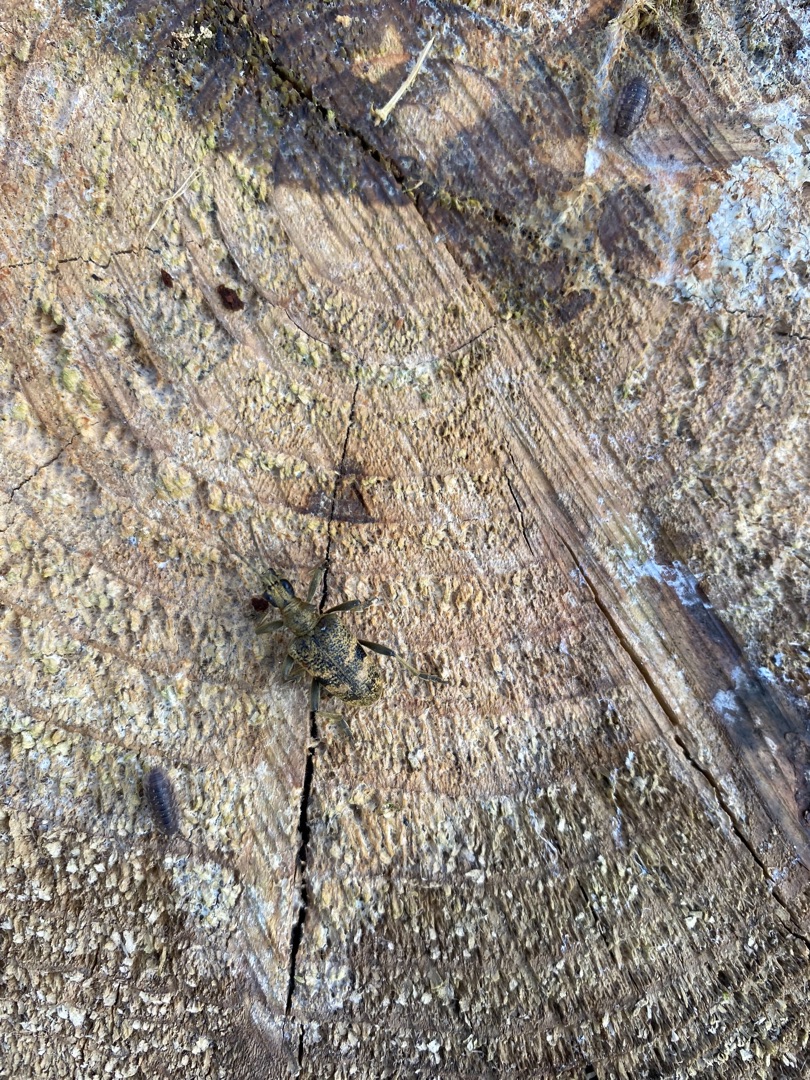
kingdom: Animalia
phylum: Arthropoda
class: Insecta
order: Coleoptera
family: Cerambycidae
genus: Rhagium
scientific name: Rhagium mordax
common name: Blankplettet tandbuk
